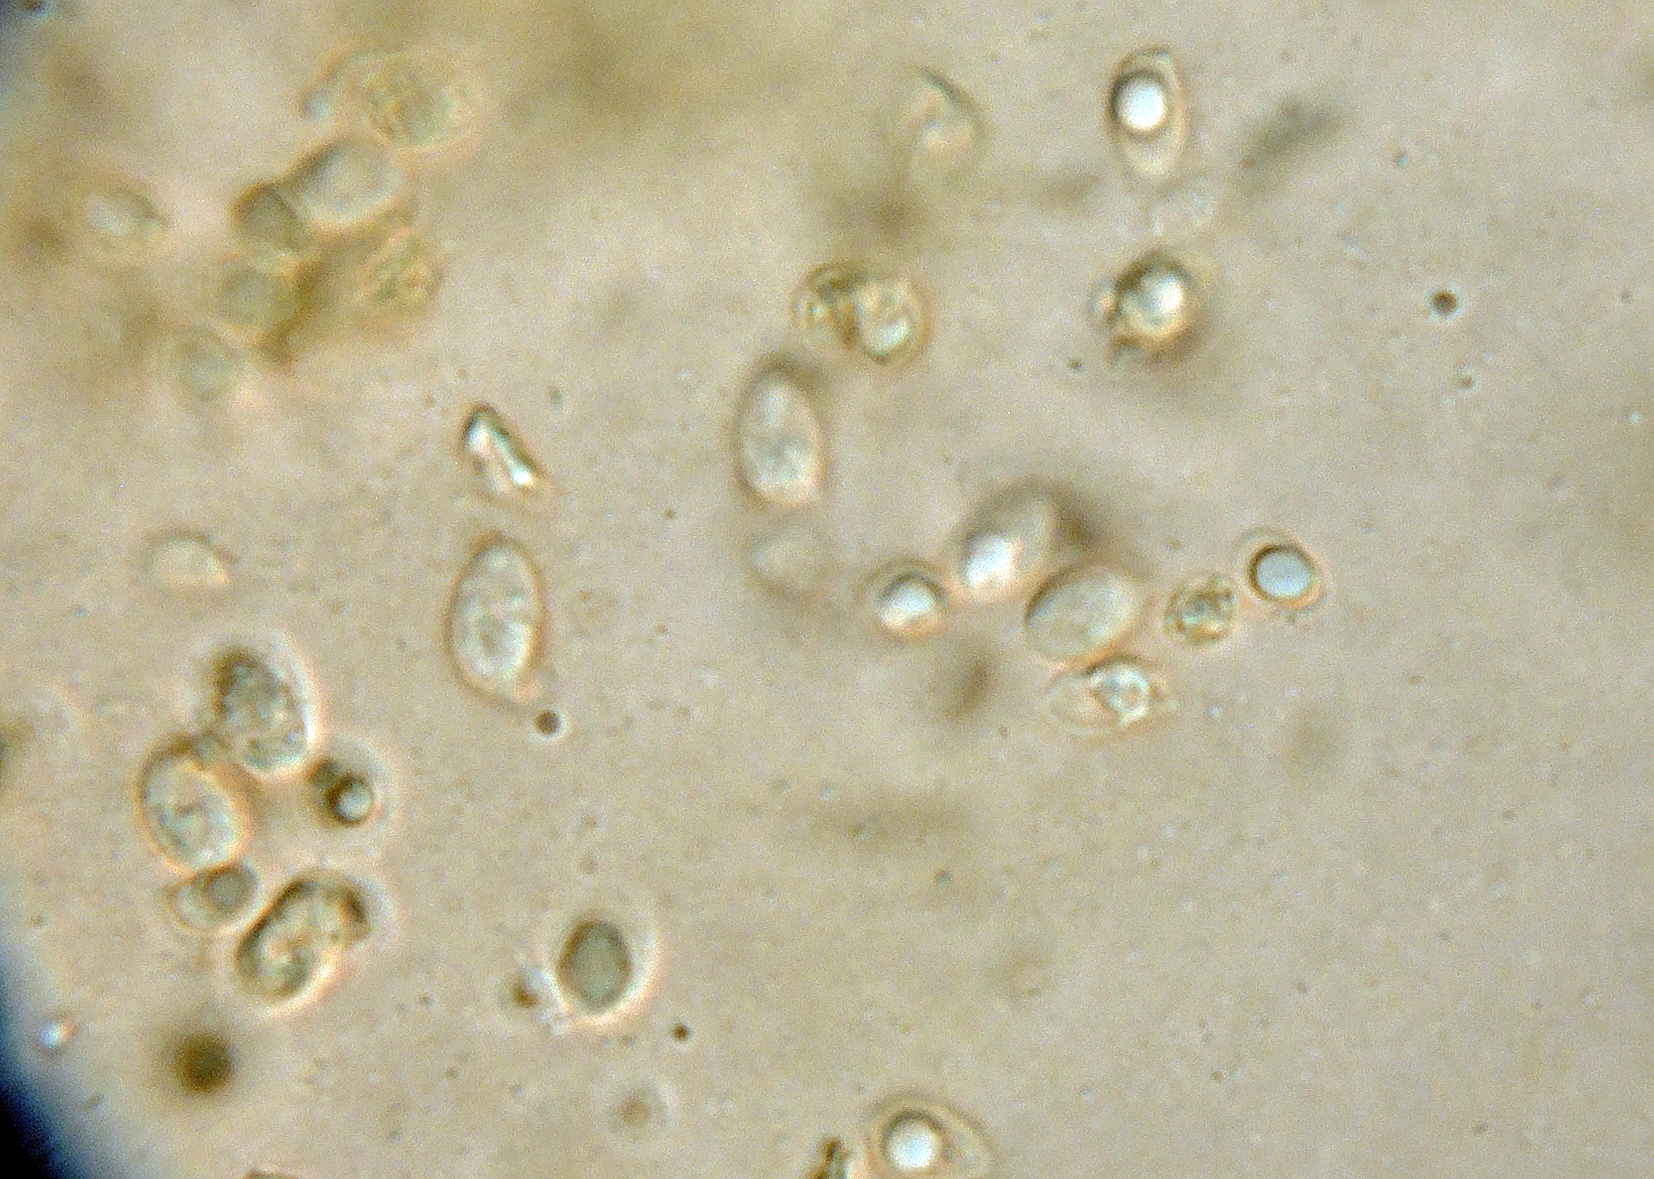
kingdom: Fungi
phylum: Basidiomycota
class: Agaricomycetes
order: Agaricales
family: Tubariaceae
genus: Tubaria
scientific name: Tubaria albostipitata
